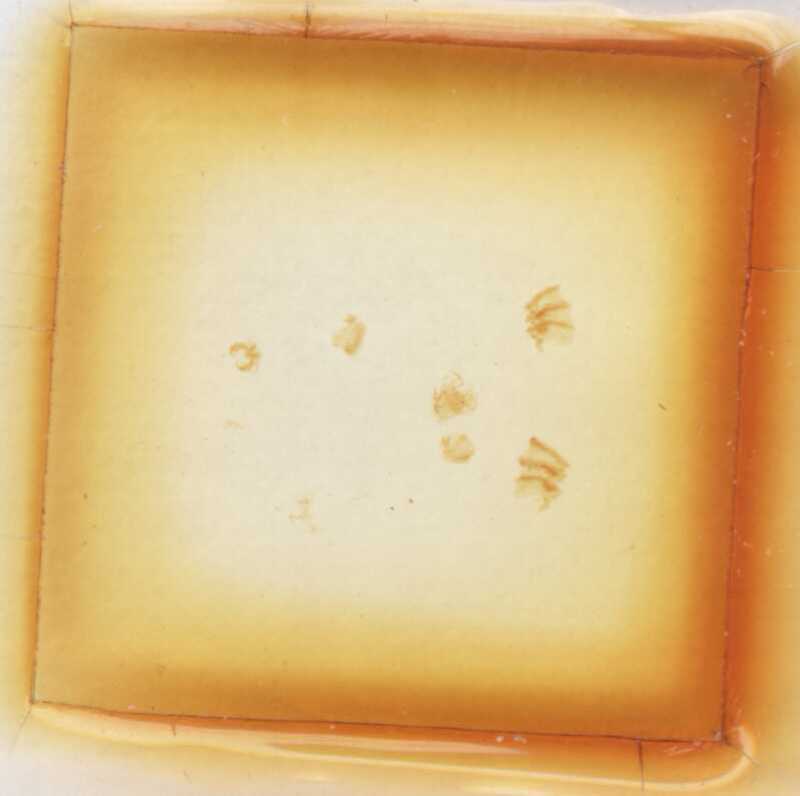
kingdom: Animalia
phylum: Arthropoda
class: Diplopoda
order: Glomerida
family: Glomeridae
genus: Trachysphaera
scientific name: Trachysphaera apenninorum
